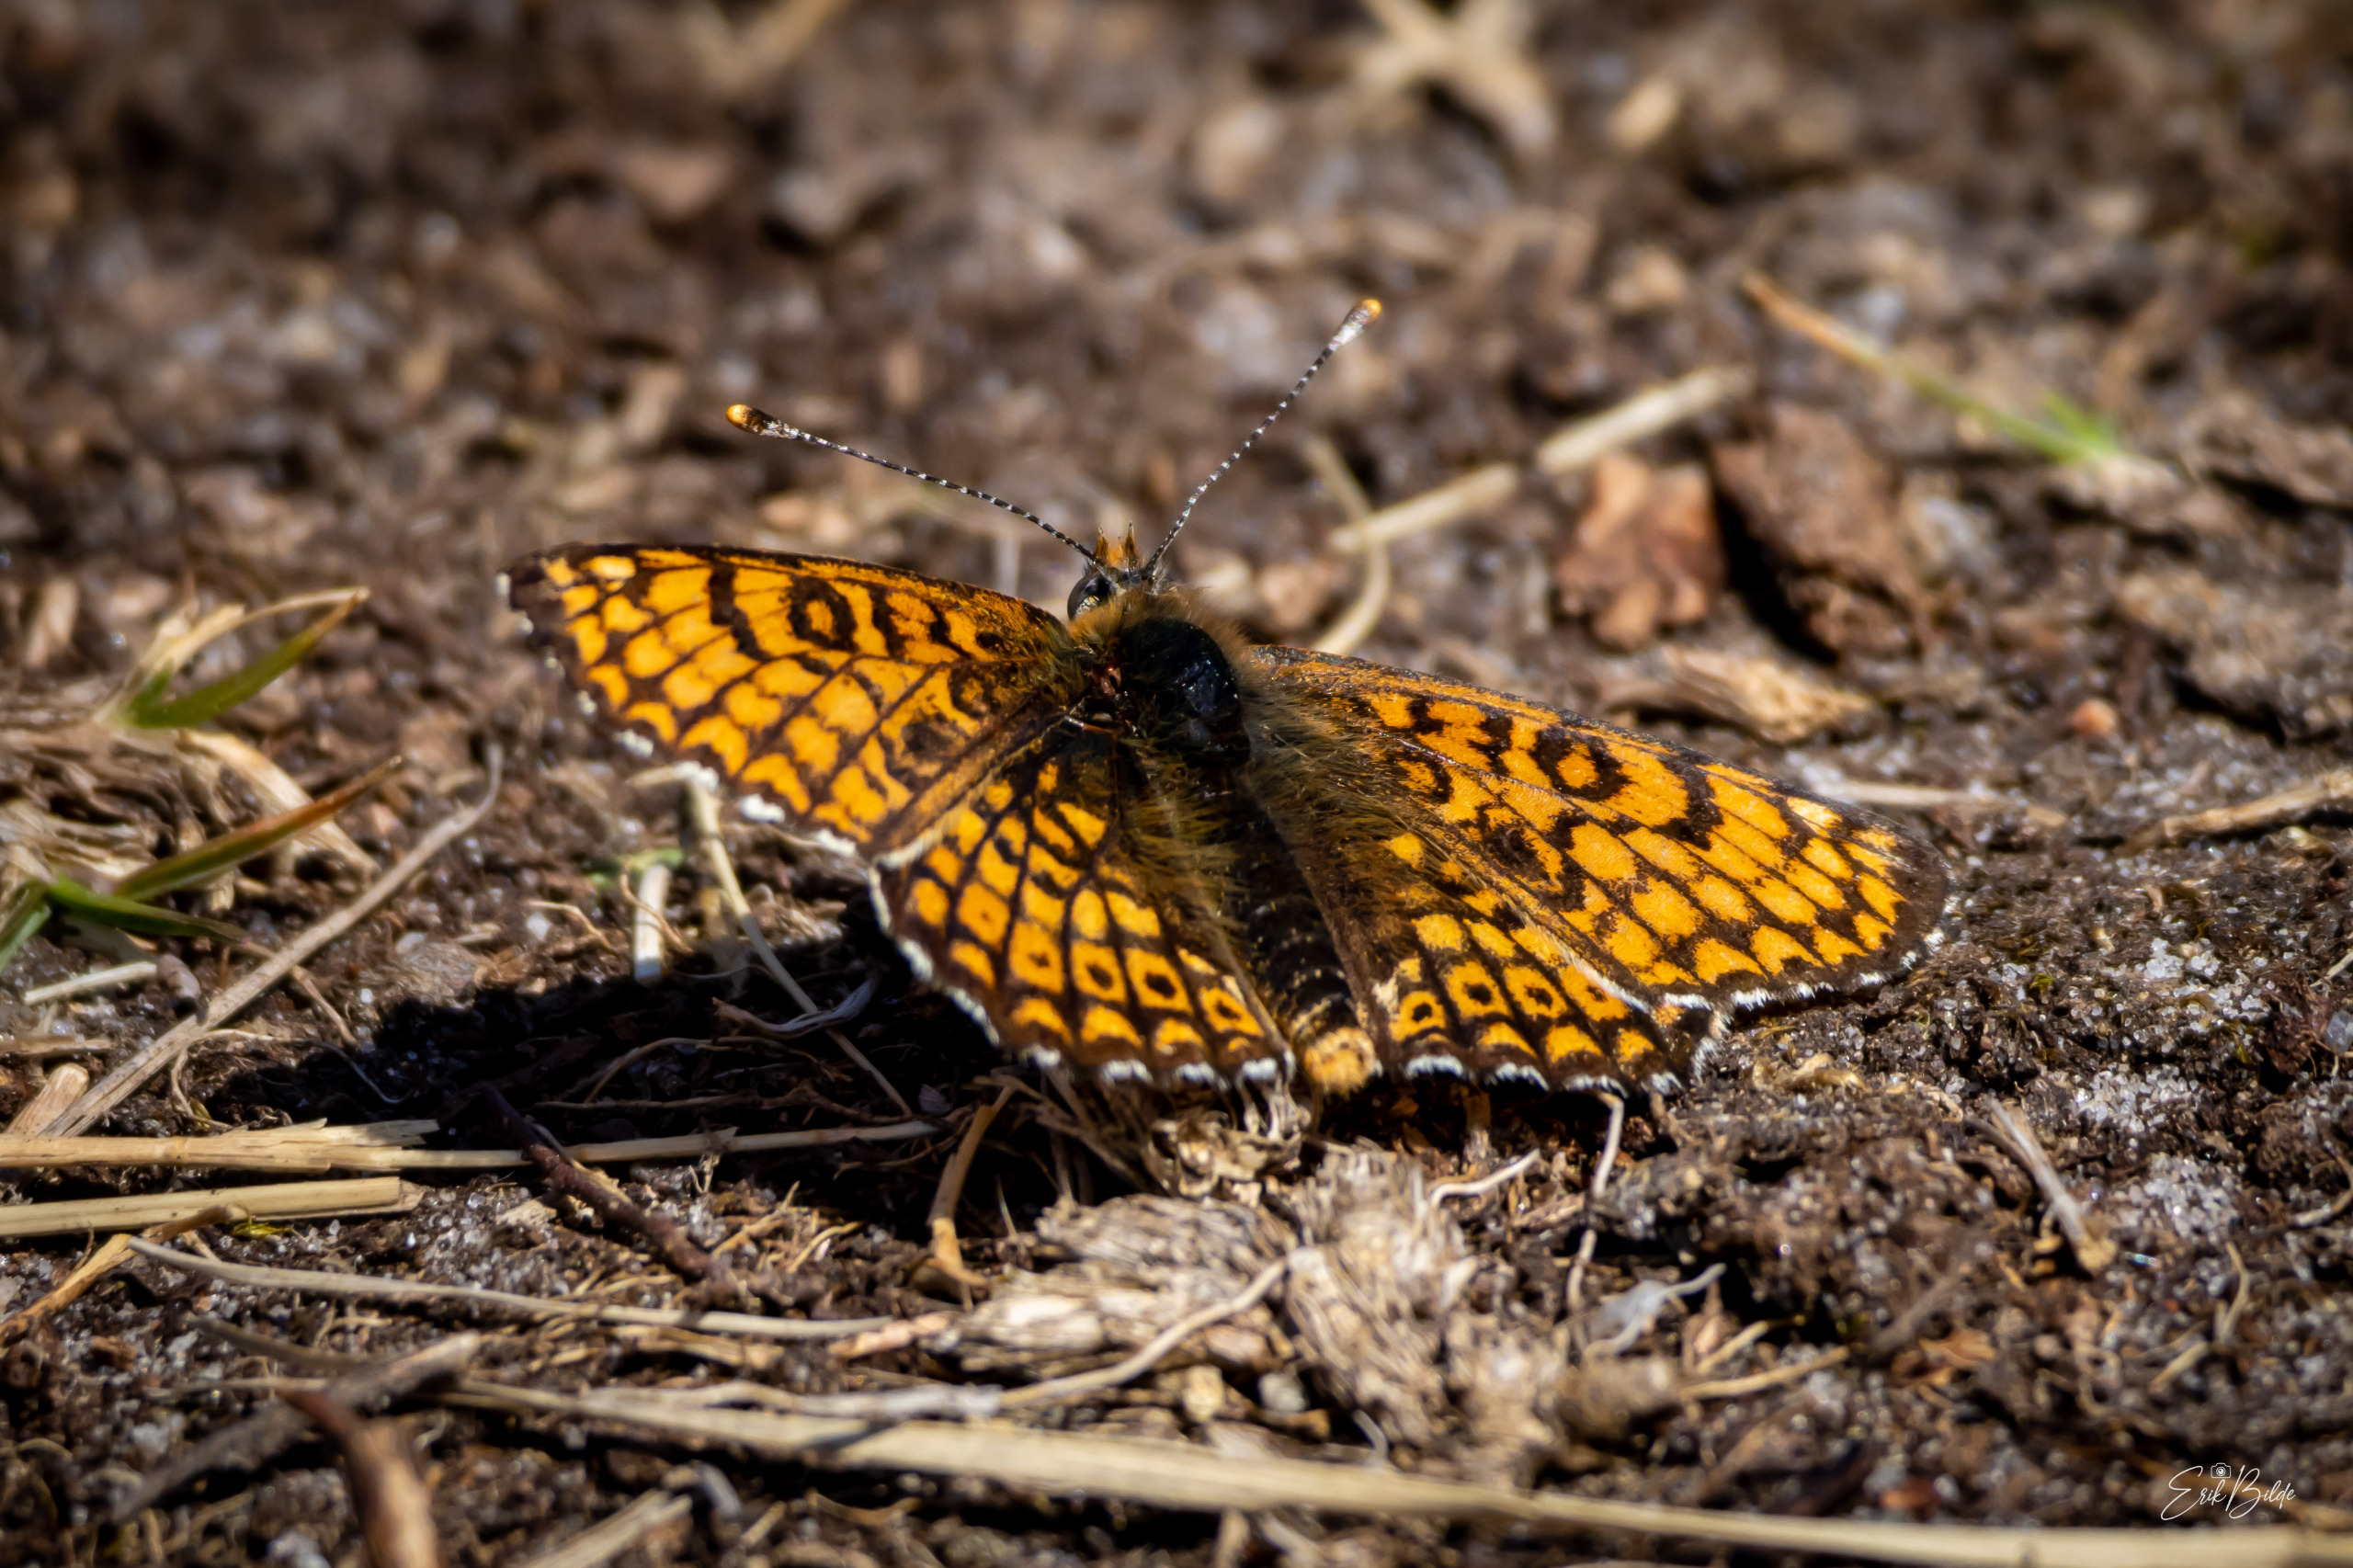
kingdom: Animalia
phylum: Arthropoda
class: Insecta
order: Lepidoptera
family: Nymphalidae
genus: Melitaea
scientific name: Melitaea cinxia
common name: Okkergul pletvinge
